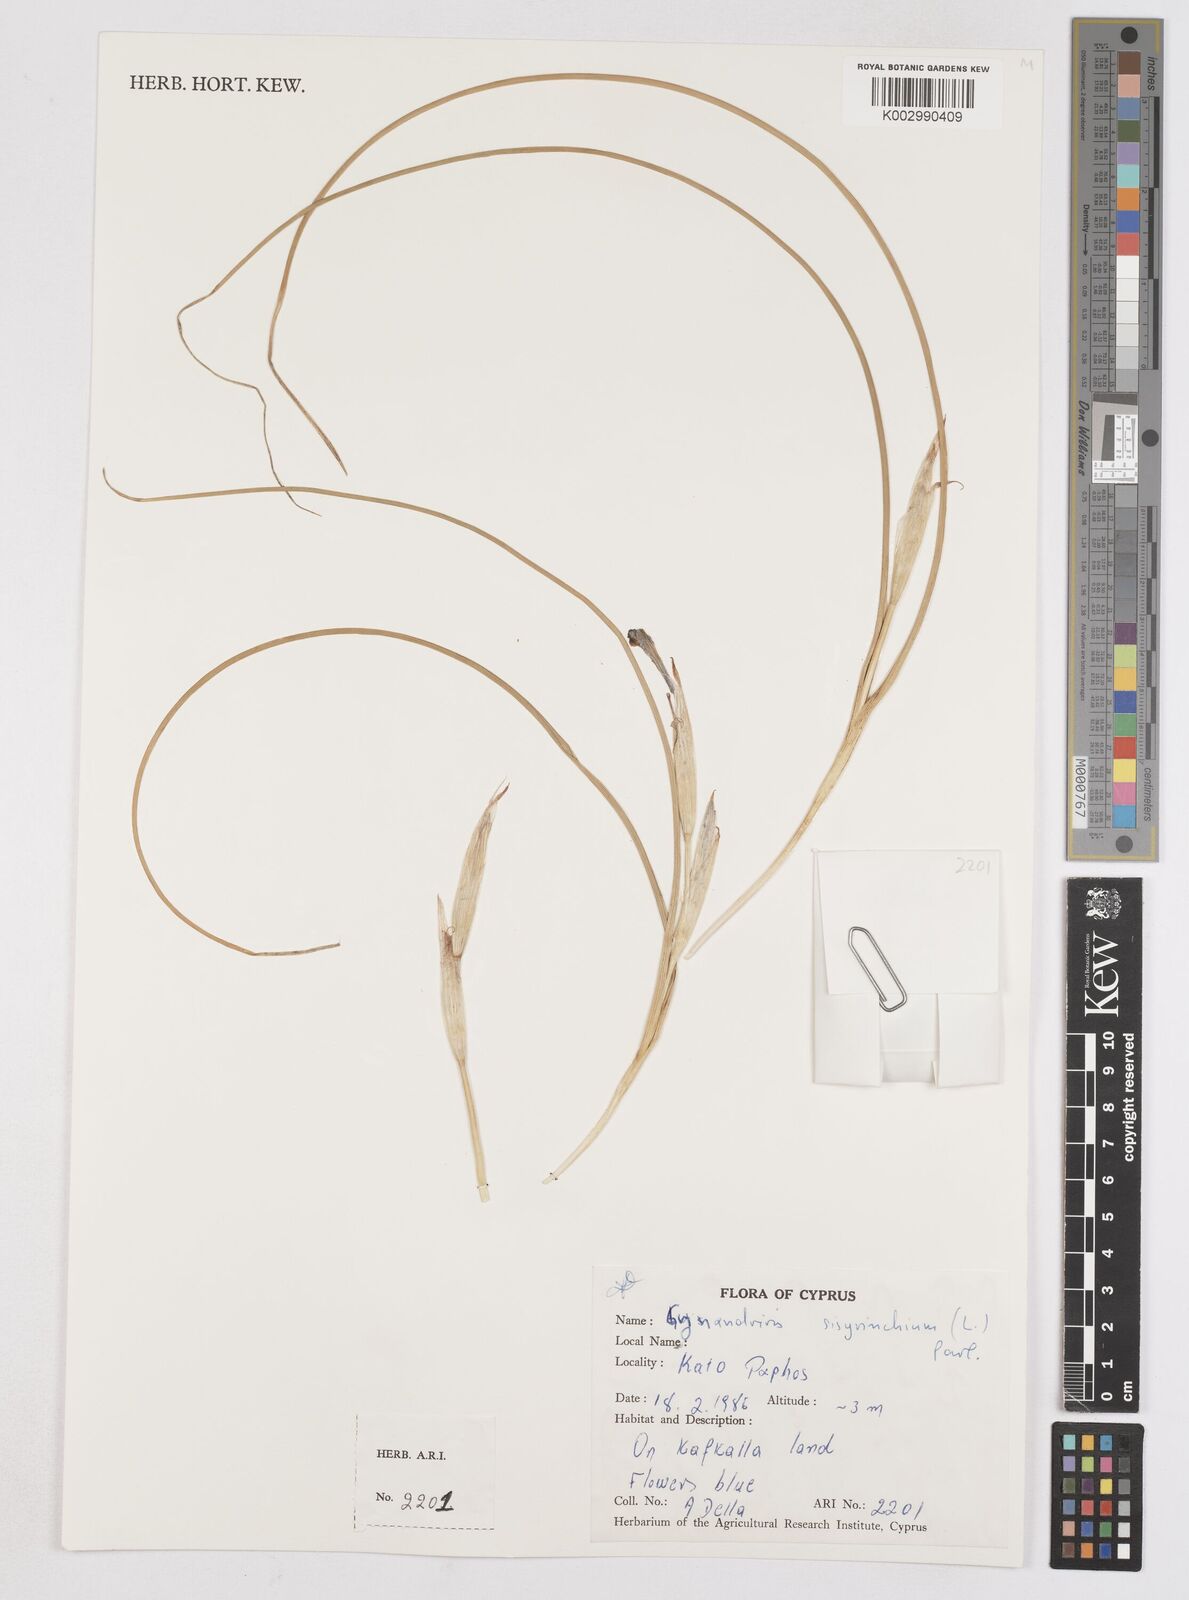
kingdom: Plantae
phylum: Tracheophyta
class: Liliopsida
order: Asparagales
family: Iridaceae
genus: Moraea
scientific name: Moraea sisyrinchium
